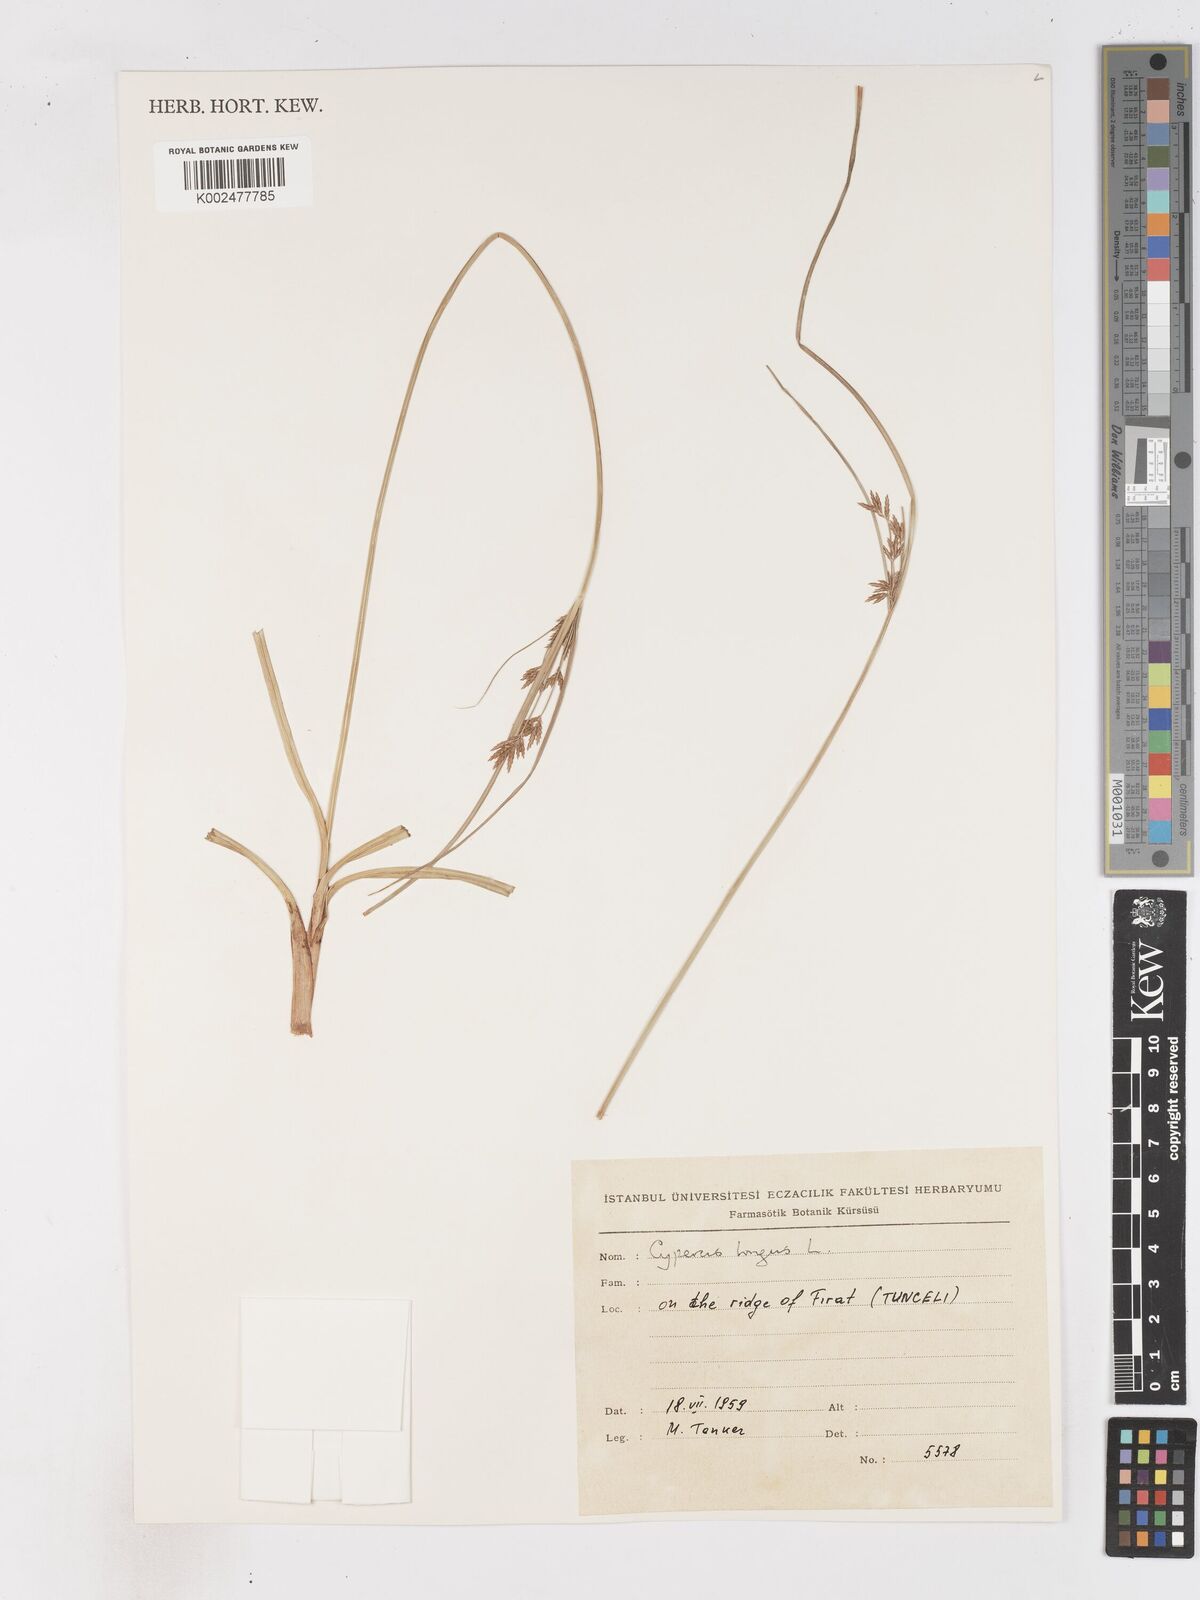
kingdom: Plantae
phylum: Tracheophyta
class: Liliopsida
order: Poales
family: Cyperaceae
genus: Cyperus
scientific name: Cyperus longus
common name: Galingale
